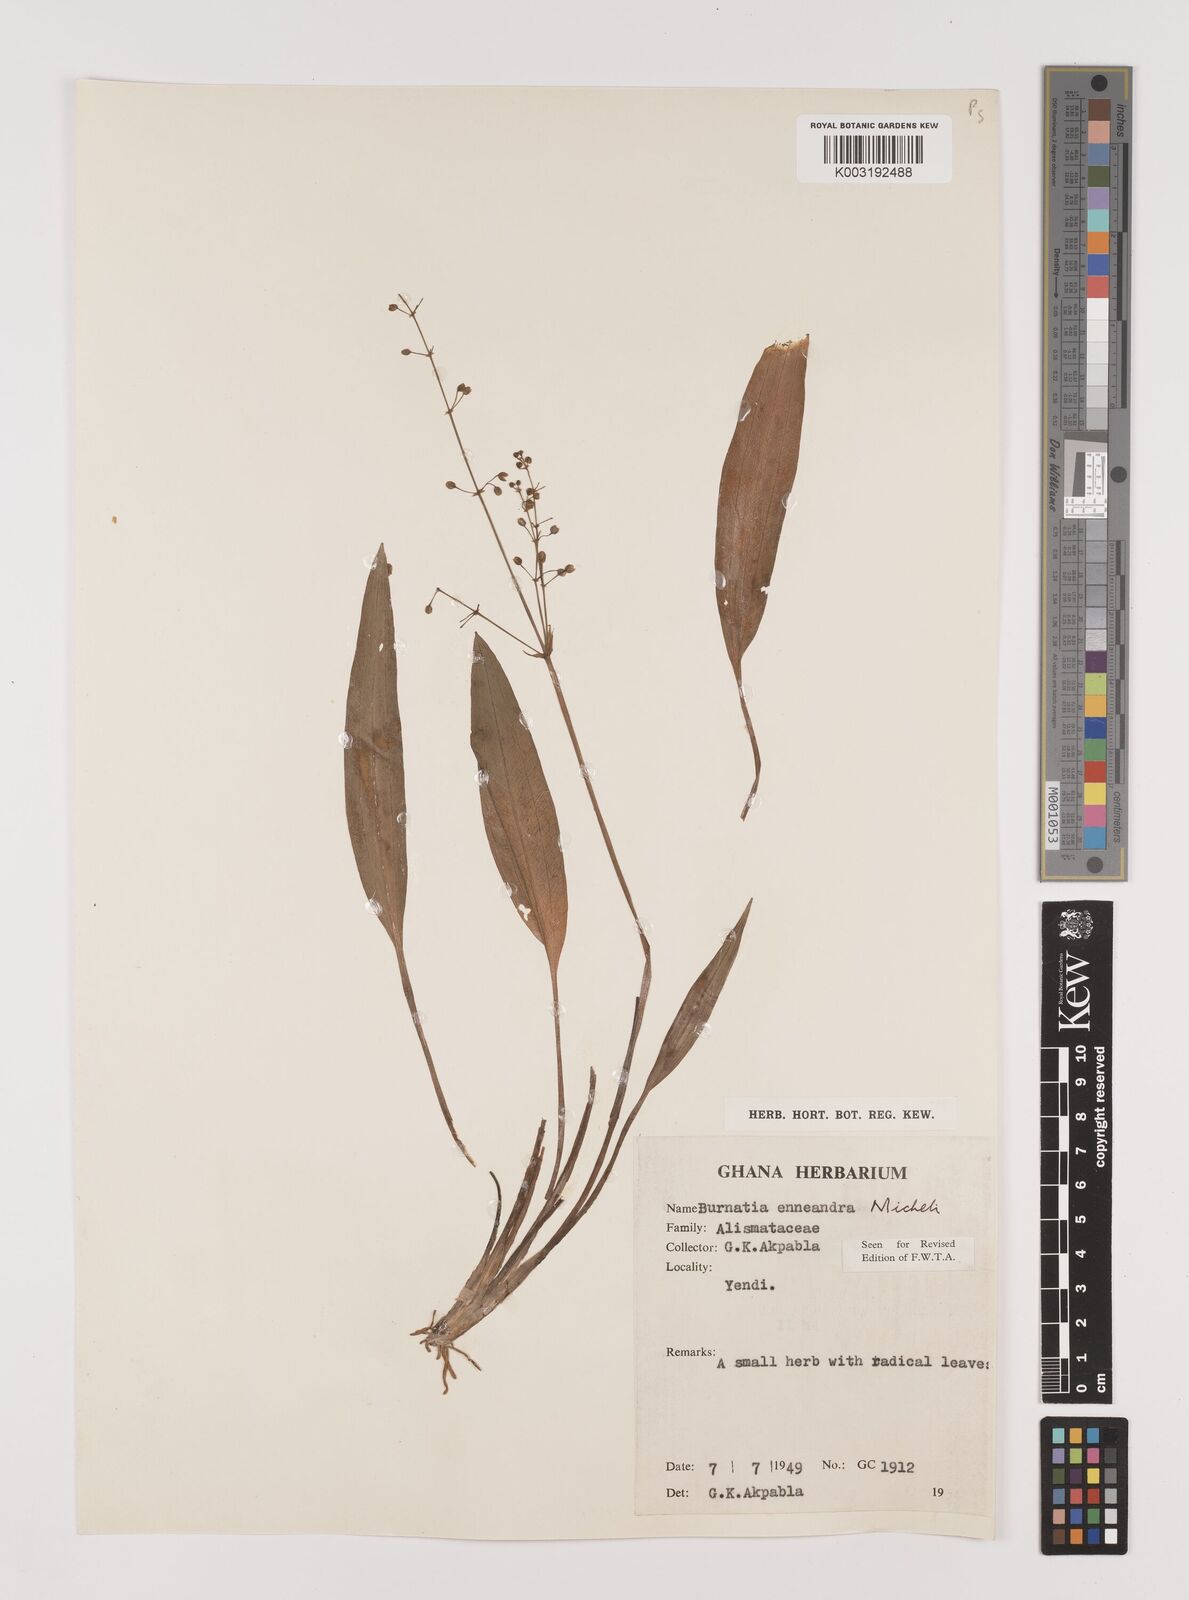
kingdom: Plantae
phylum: Tracheophyta
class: Liliopsida
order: Alismatales
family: Alismataceae
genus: Burnatia
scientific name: Burnatia enneandra
